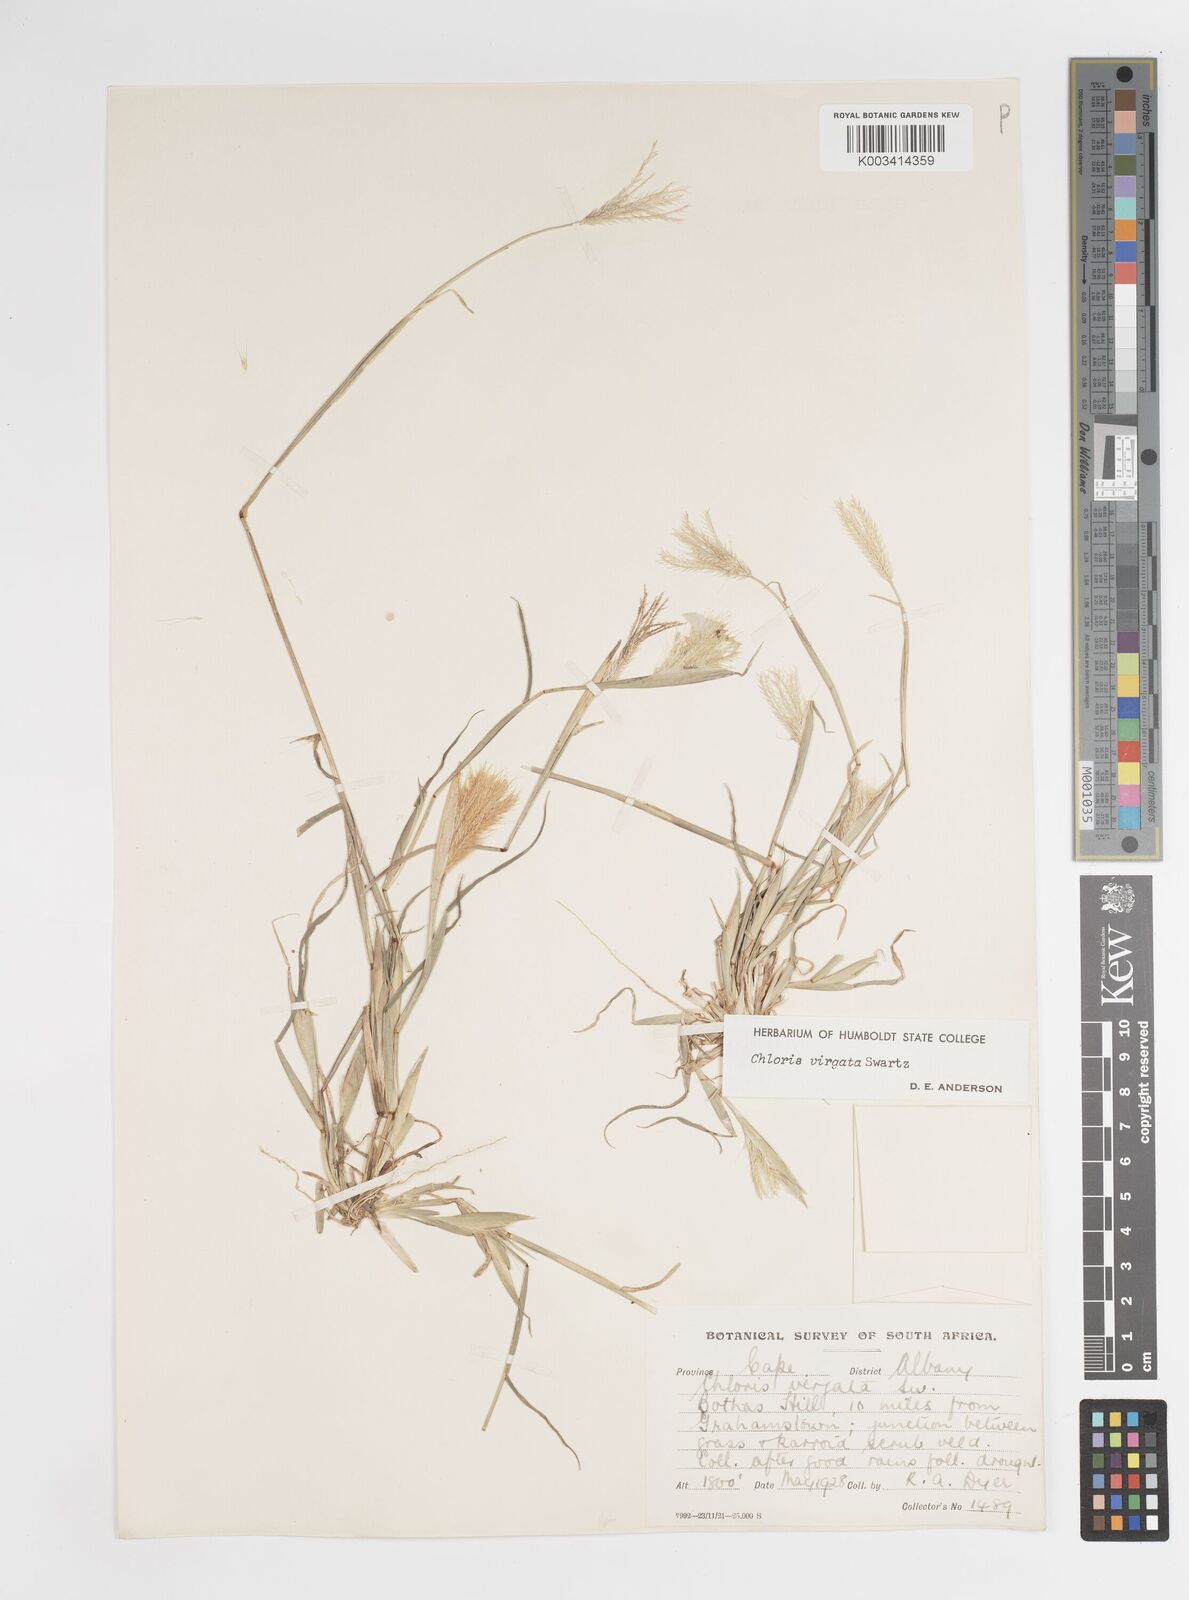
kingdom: Plantae
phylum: Tracheophyta
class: Liliopsida
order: Poales
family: Poaceae
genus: Chloris
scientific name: Chloris virgata
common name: Feathery rhodes-grass
